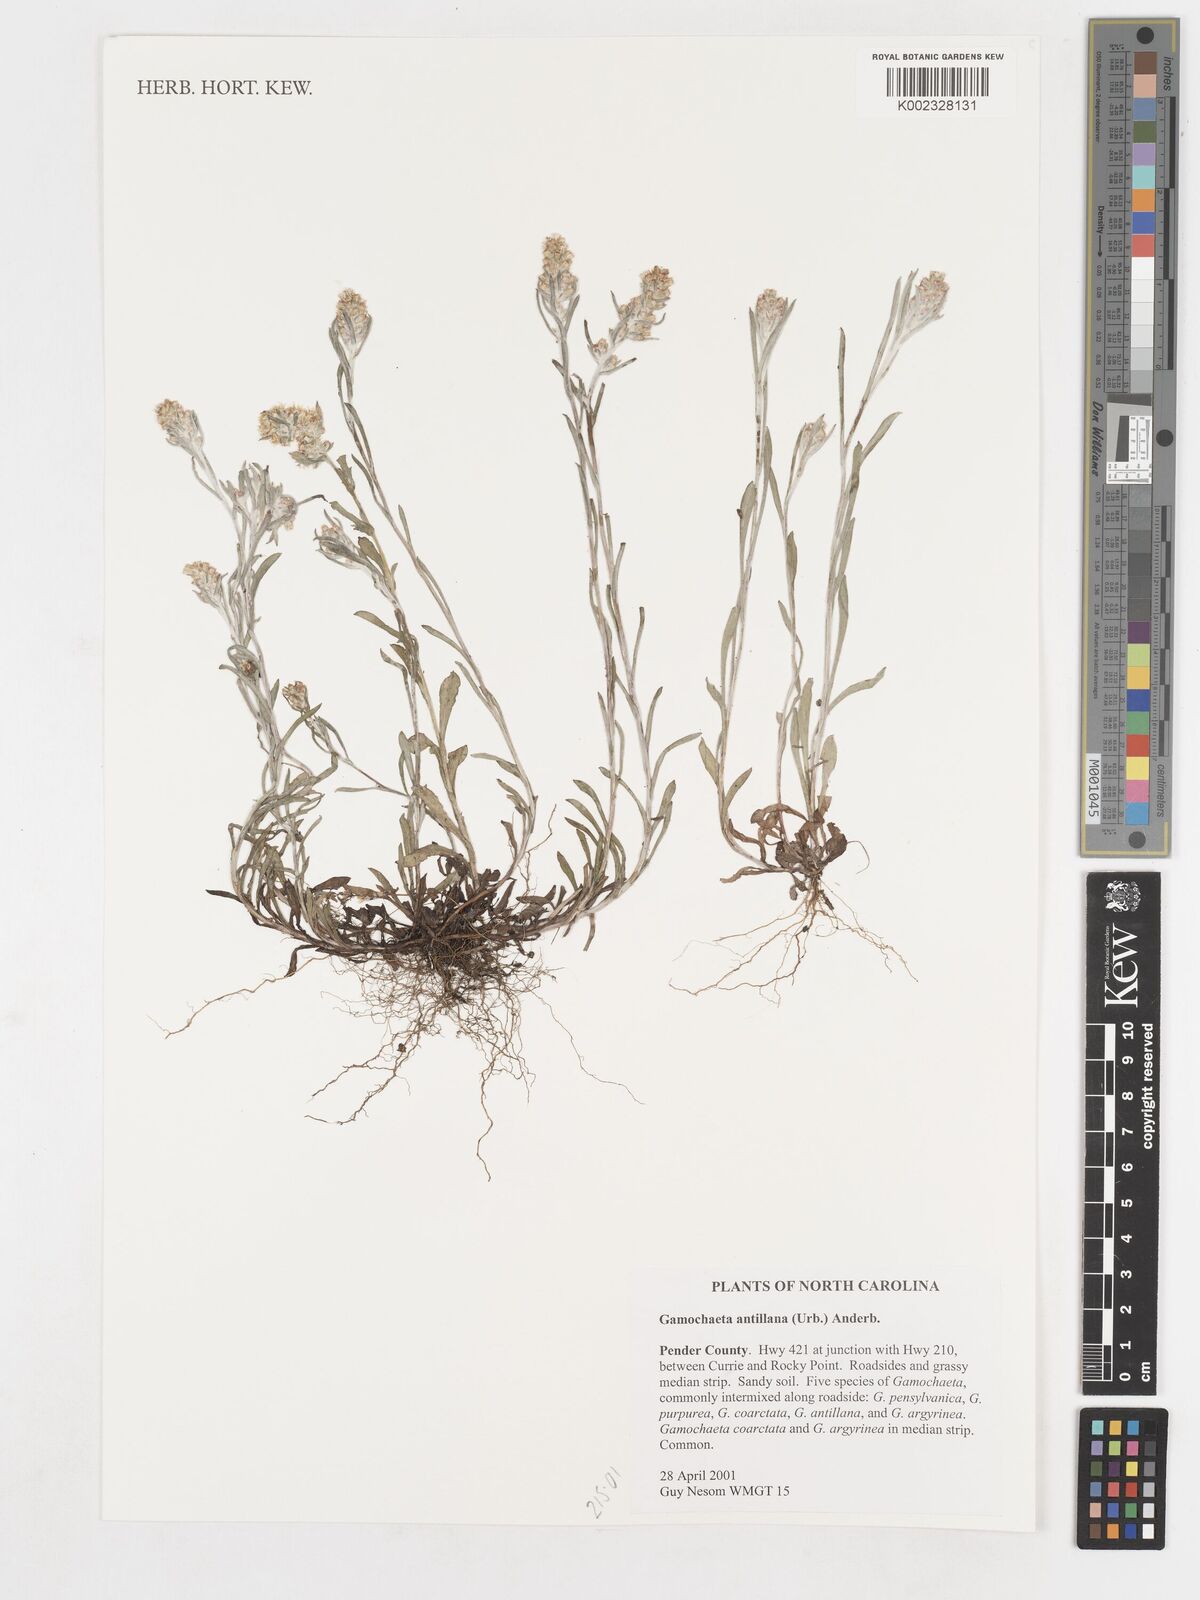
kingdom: Plantae
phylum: Tracheophyta
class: Magnoliopsida
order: Asterales
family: Asteraceae
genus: Gamochaeta
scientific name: Gamochaeta antillana
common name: Delicate everlasting
